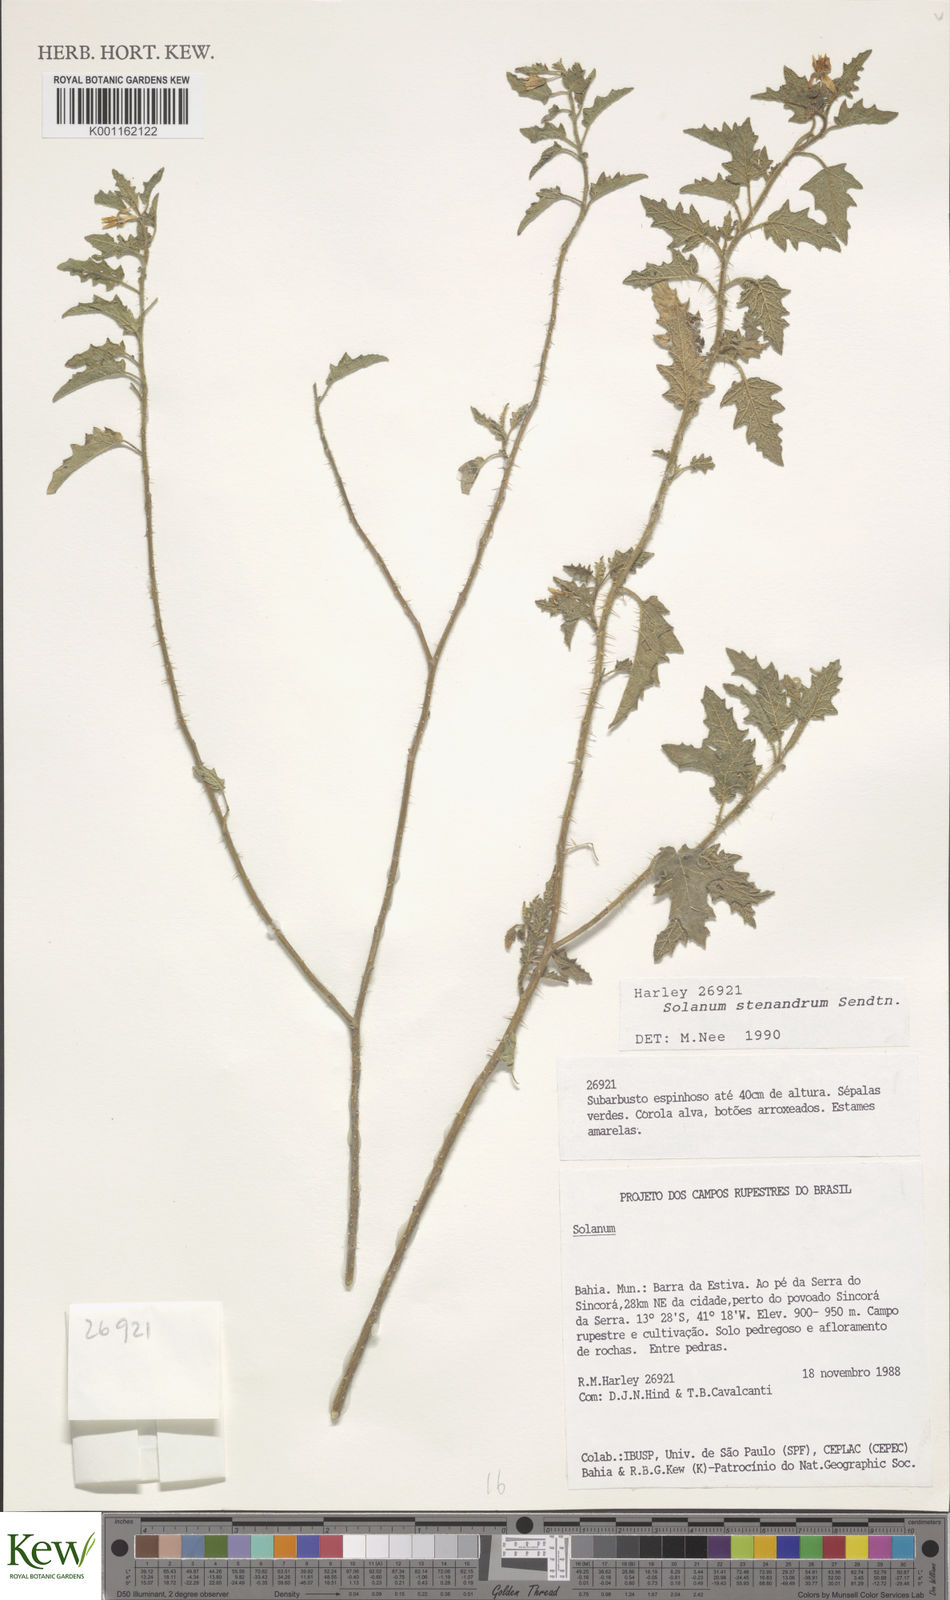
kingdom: Plantae
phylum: Tracheophyta
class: Magnoliopsida
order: Solanales
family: Solanaceae
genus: Solanum
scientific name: Solanum stenandrum
